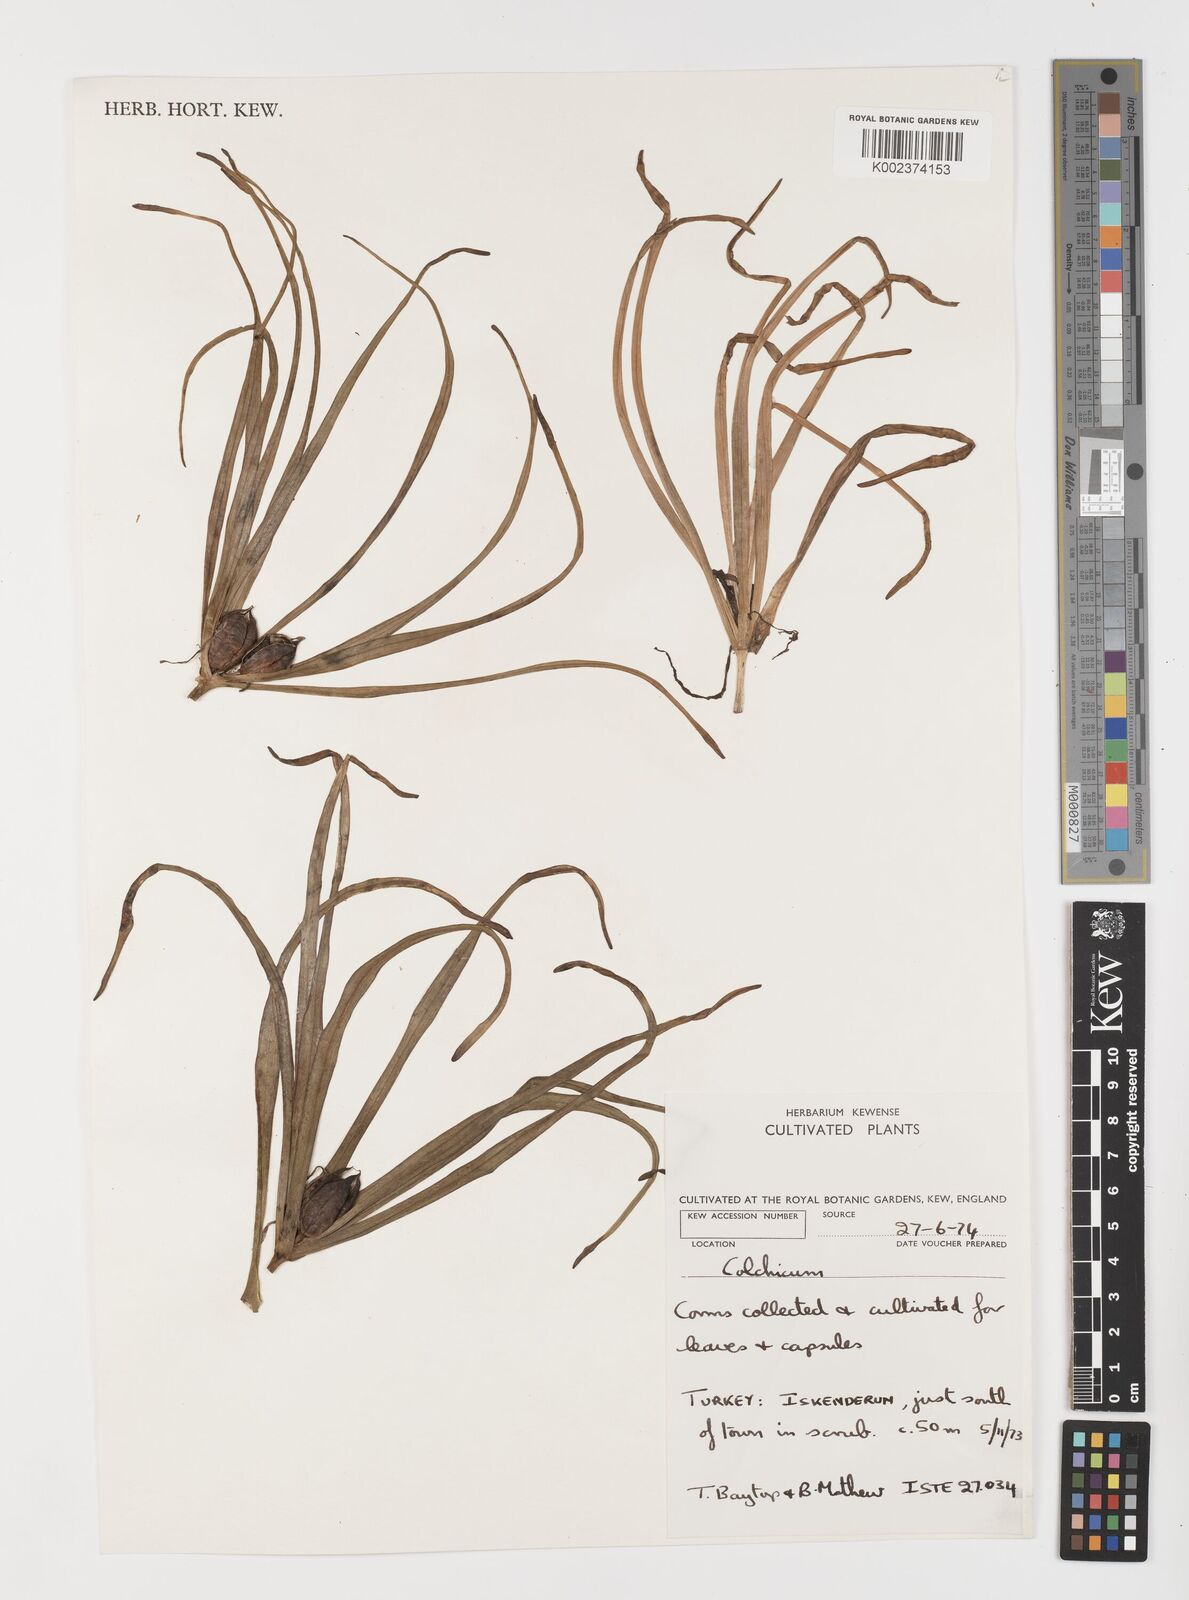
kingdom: Plantae
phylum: Tracheophyta
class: Liliopsida
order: Liliales
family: Colchicaceae
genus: Colchicum
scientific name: Colchicum hierosolymitanum
